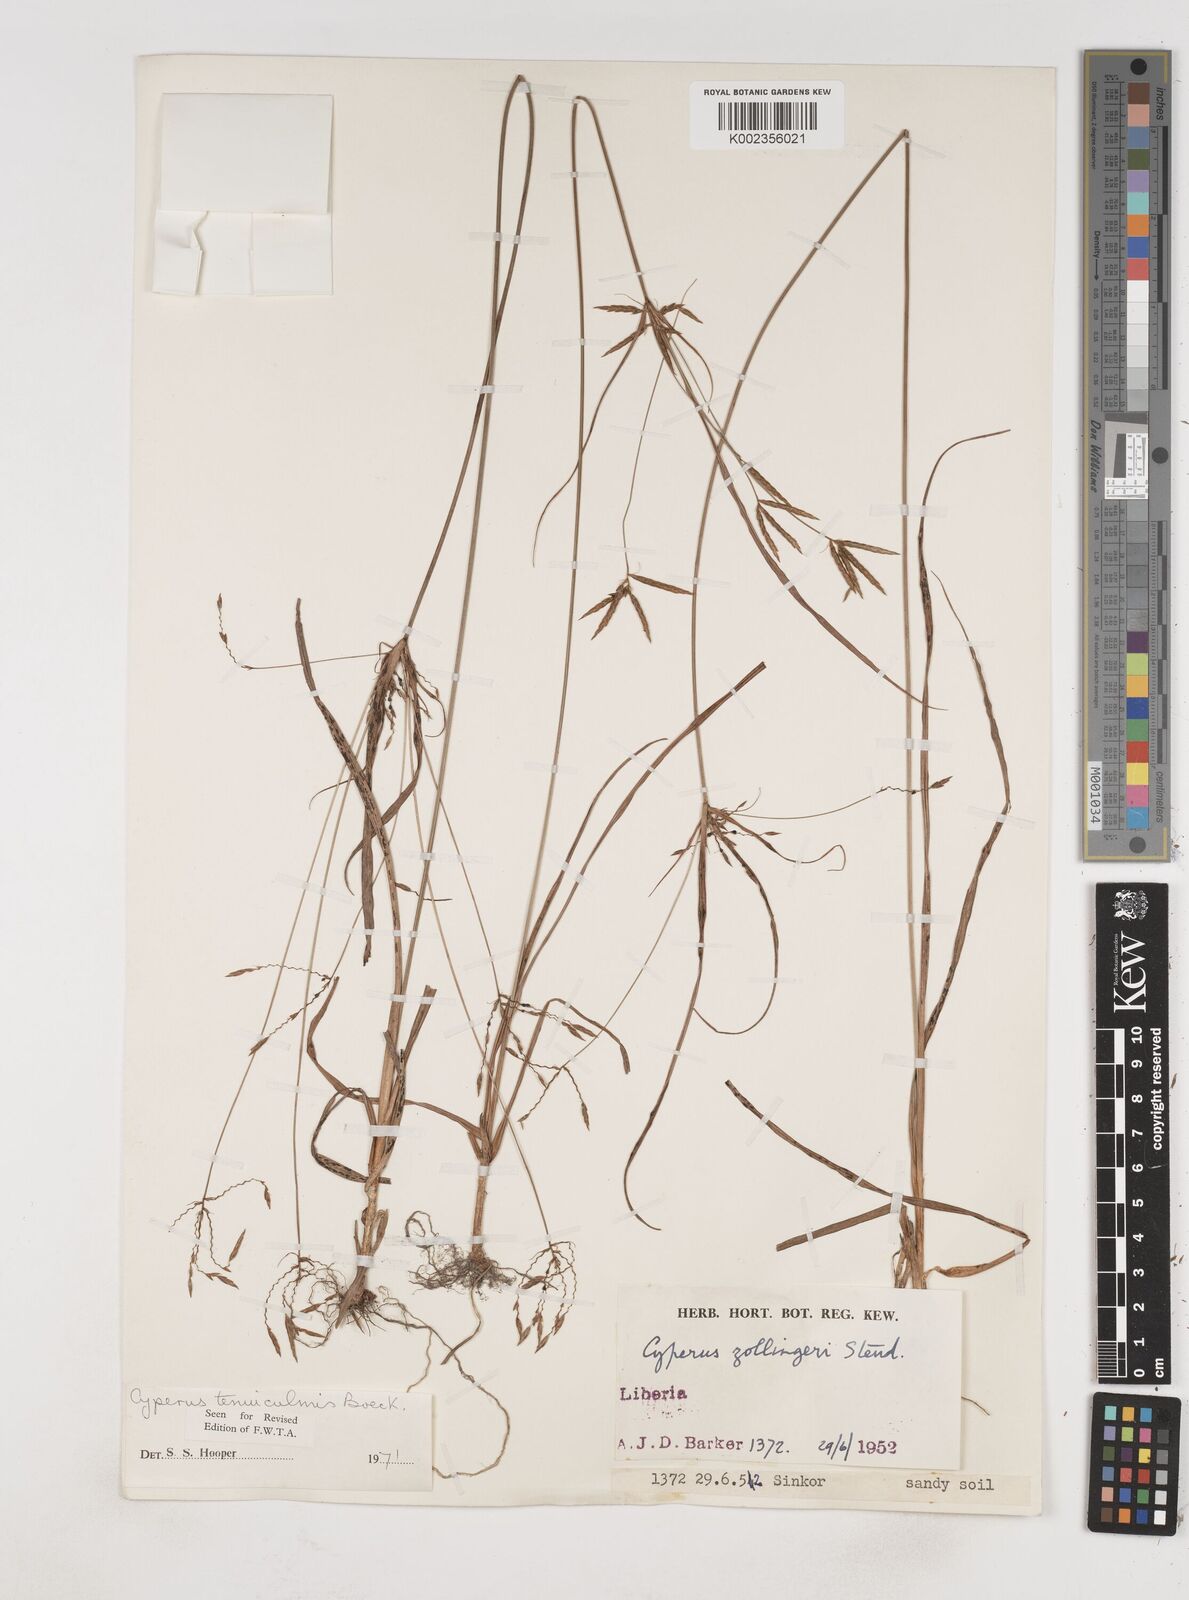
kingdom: Plantae
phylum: Tracheophyta
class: Liliopsida
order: Poales
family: Cyperaceae
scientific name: Cyperaceae
